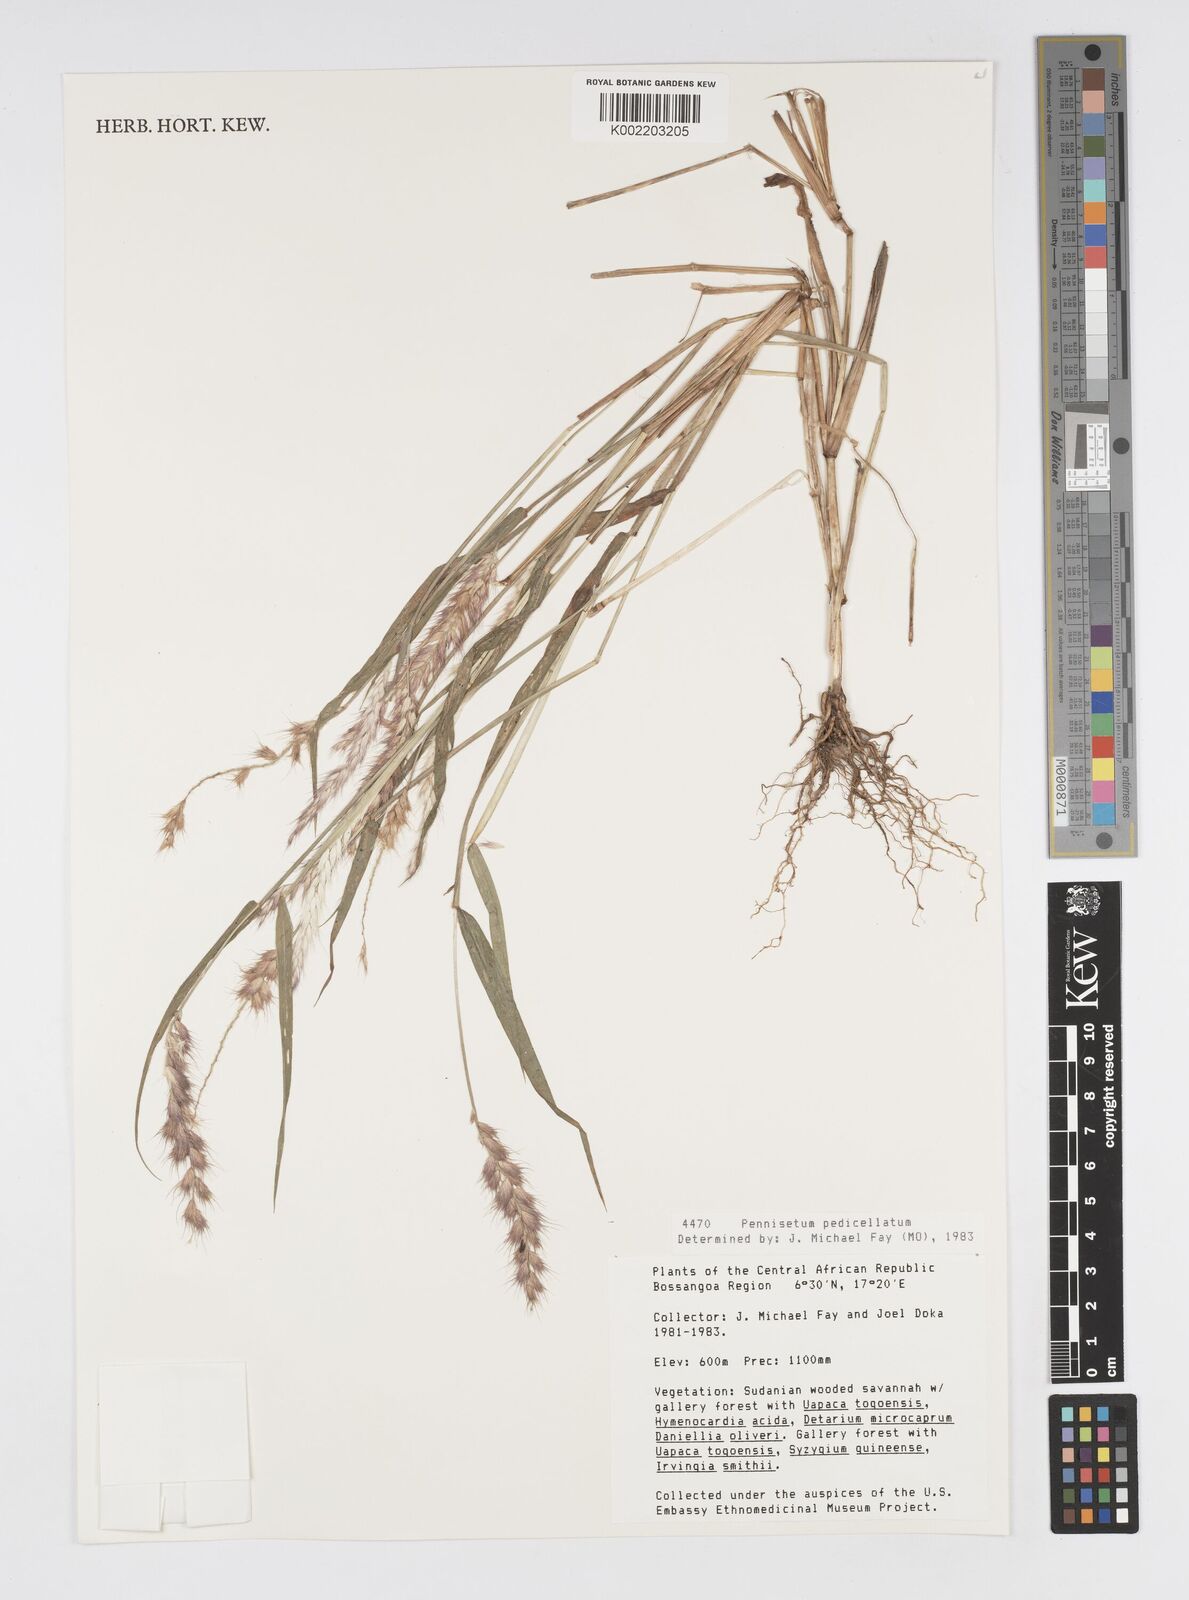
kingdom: Plantae
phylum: Tracheophyta
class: Liliopsida
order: Poales
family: Poaceae
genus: Cenchrus
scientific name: Cenchrus pedicellatus
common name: Hairy fountain grass
